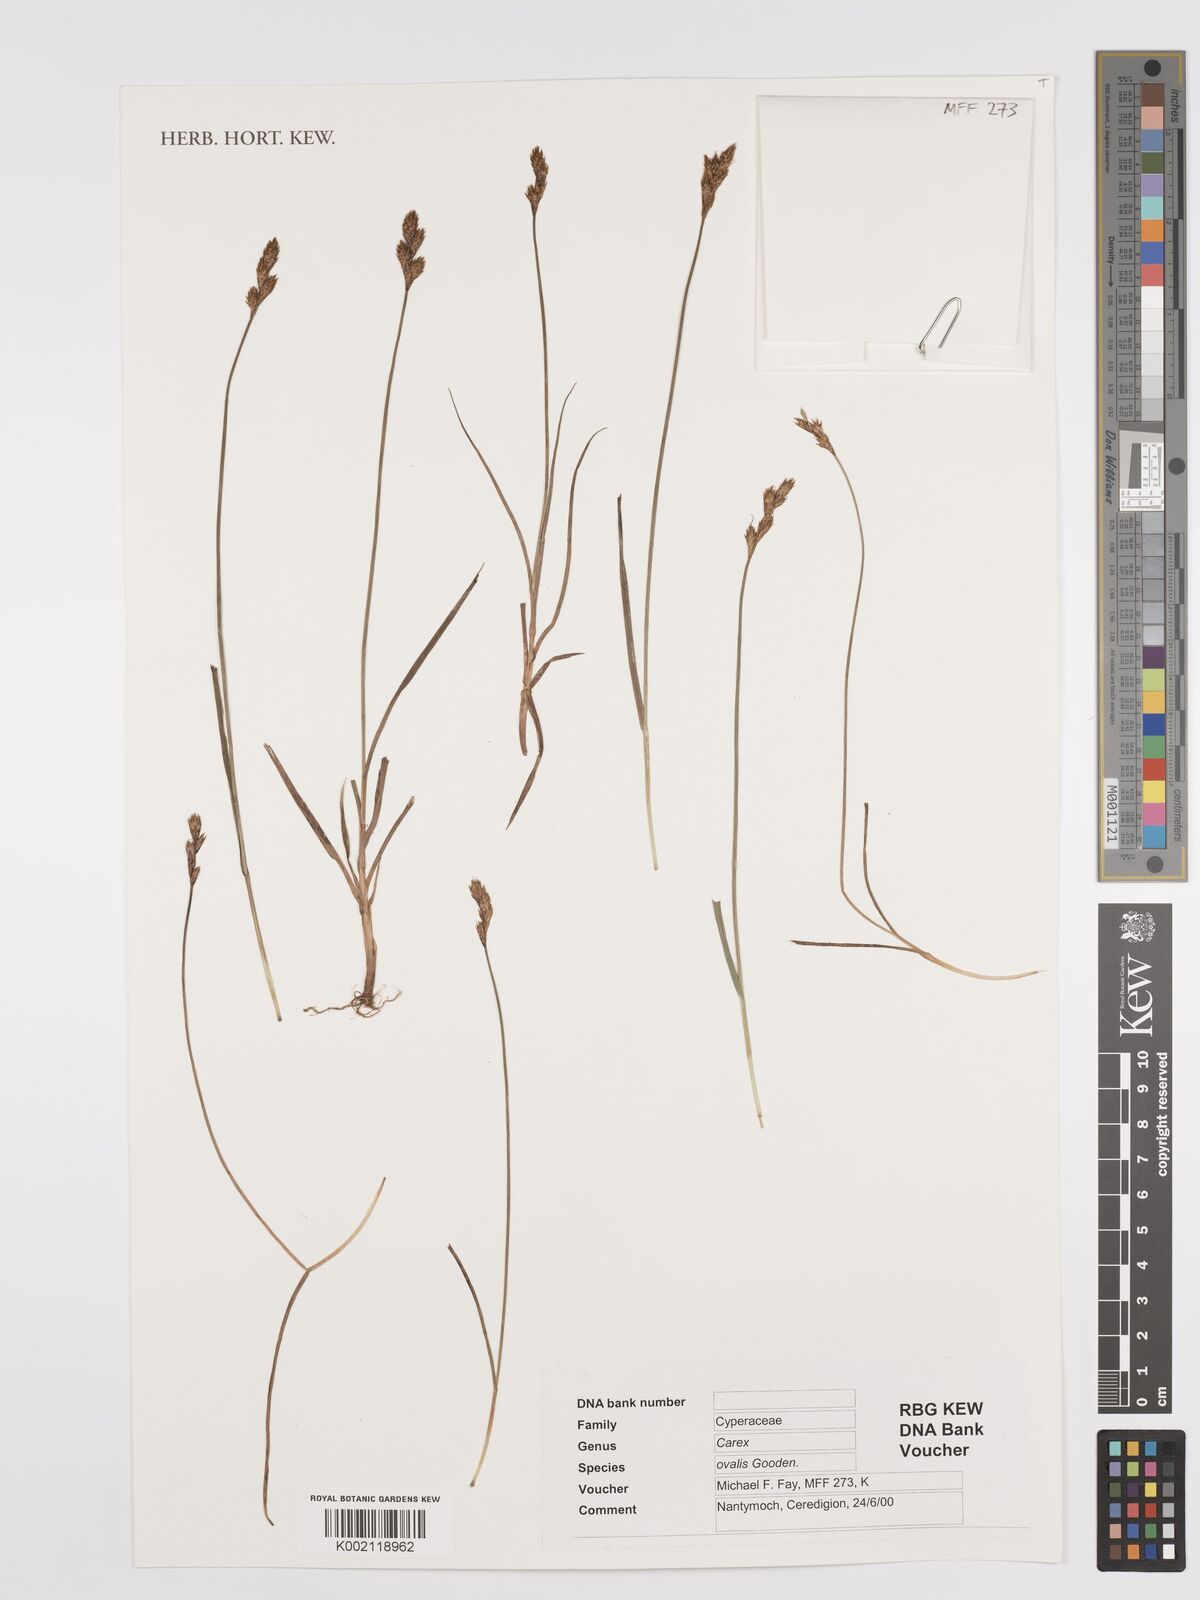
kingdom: Plantae
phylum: Tracheophyta
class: Liliopsida
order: Poales
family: Cyperaceae
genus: Carex
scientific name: Carex leporina
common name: Oval sedge
